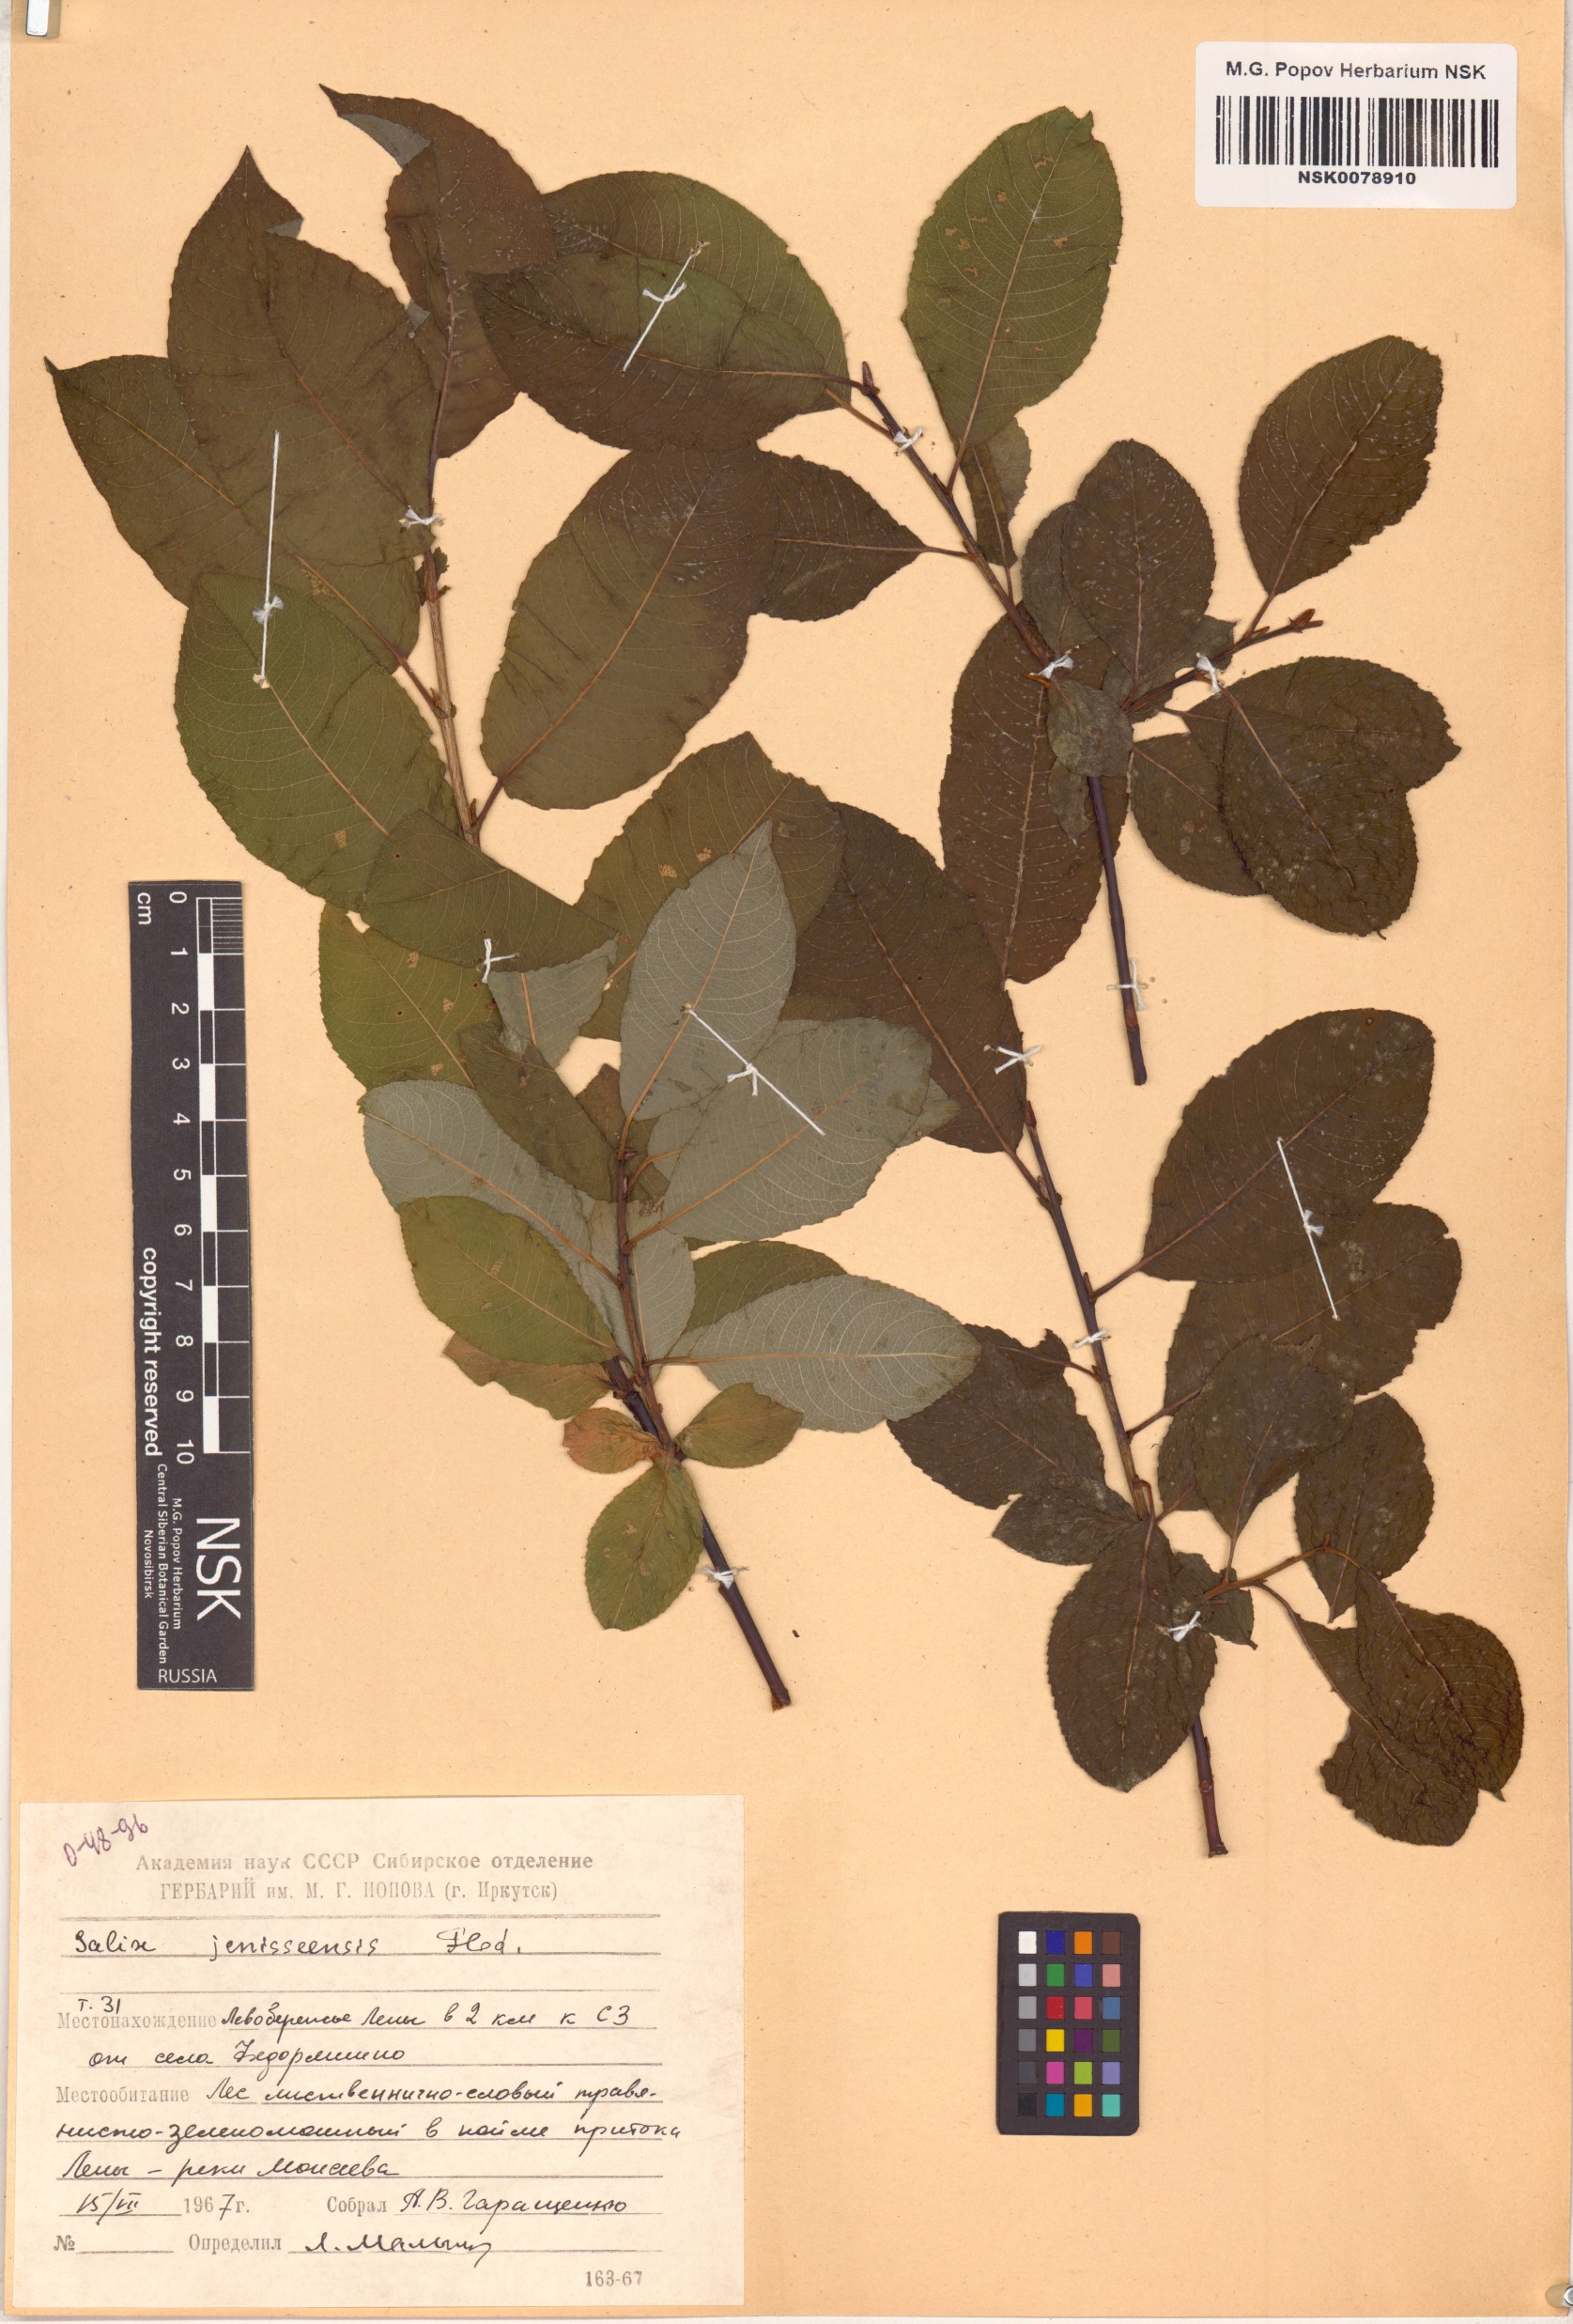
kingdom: Plantae
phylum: Tracheophyta
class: Magnoliopsida
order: Malpighiales
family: Salicaceae
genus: Salix
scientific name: Salix jenisseensis
